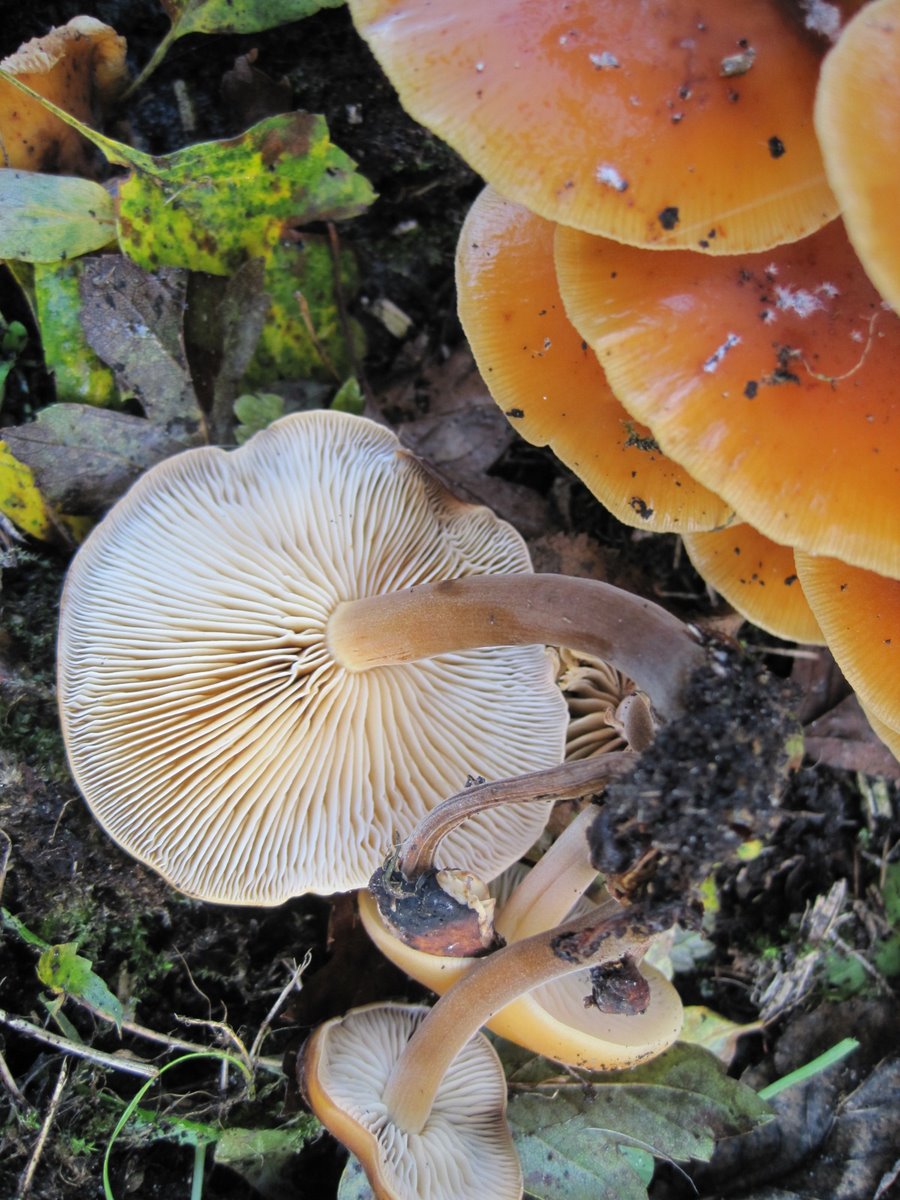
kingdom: Fungi
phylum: Basidiomycota
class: Agaricomycetes
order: Agaricales
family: Physalacriaceae
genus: Flammulina
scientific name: Flammulina velutipes
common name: gul fløjlsfod
